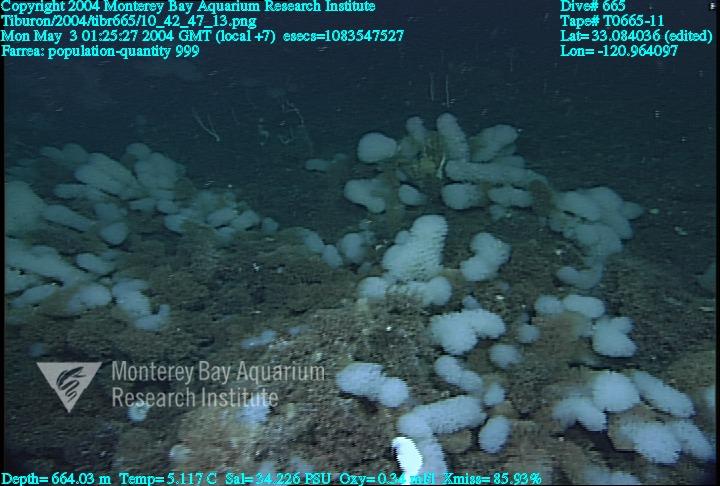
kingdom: Animalia
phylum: Porifera
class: Hexactinellida
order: Sceptrulophora
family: Farreidae
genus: Farrea
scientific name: Farrea
